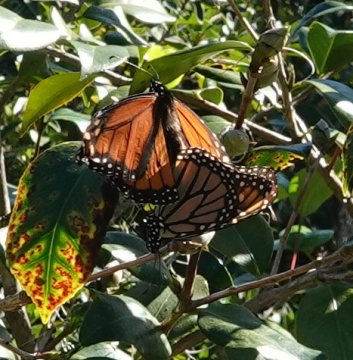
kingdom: Animalia
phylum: Arthropoda
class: Insecta
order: Lepidoptera
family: Nymphalidae
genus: Danaus
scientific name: Danaus plexippus
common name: Monarch
